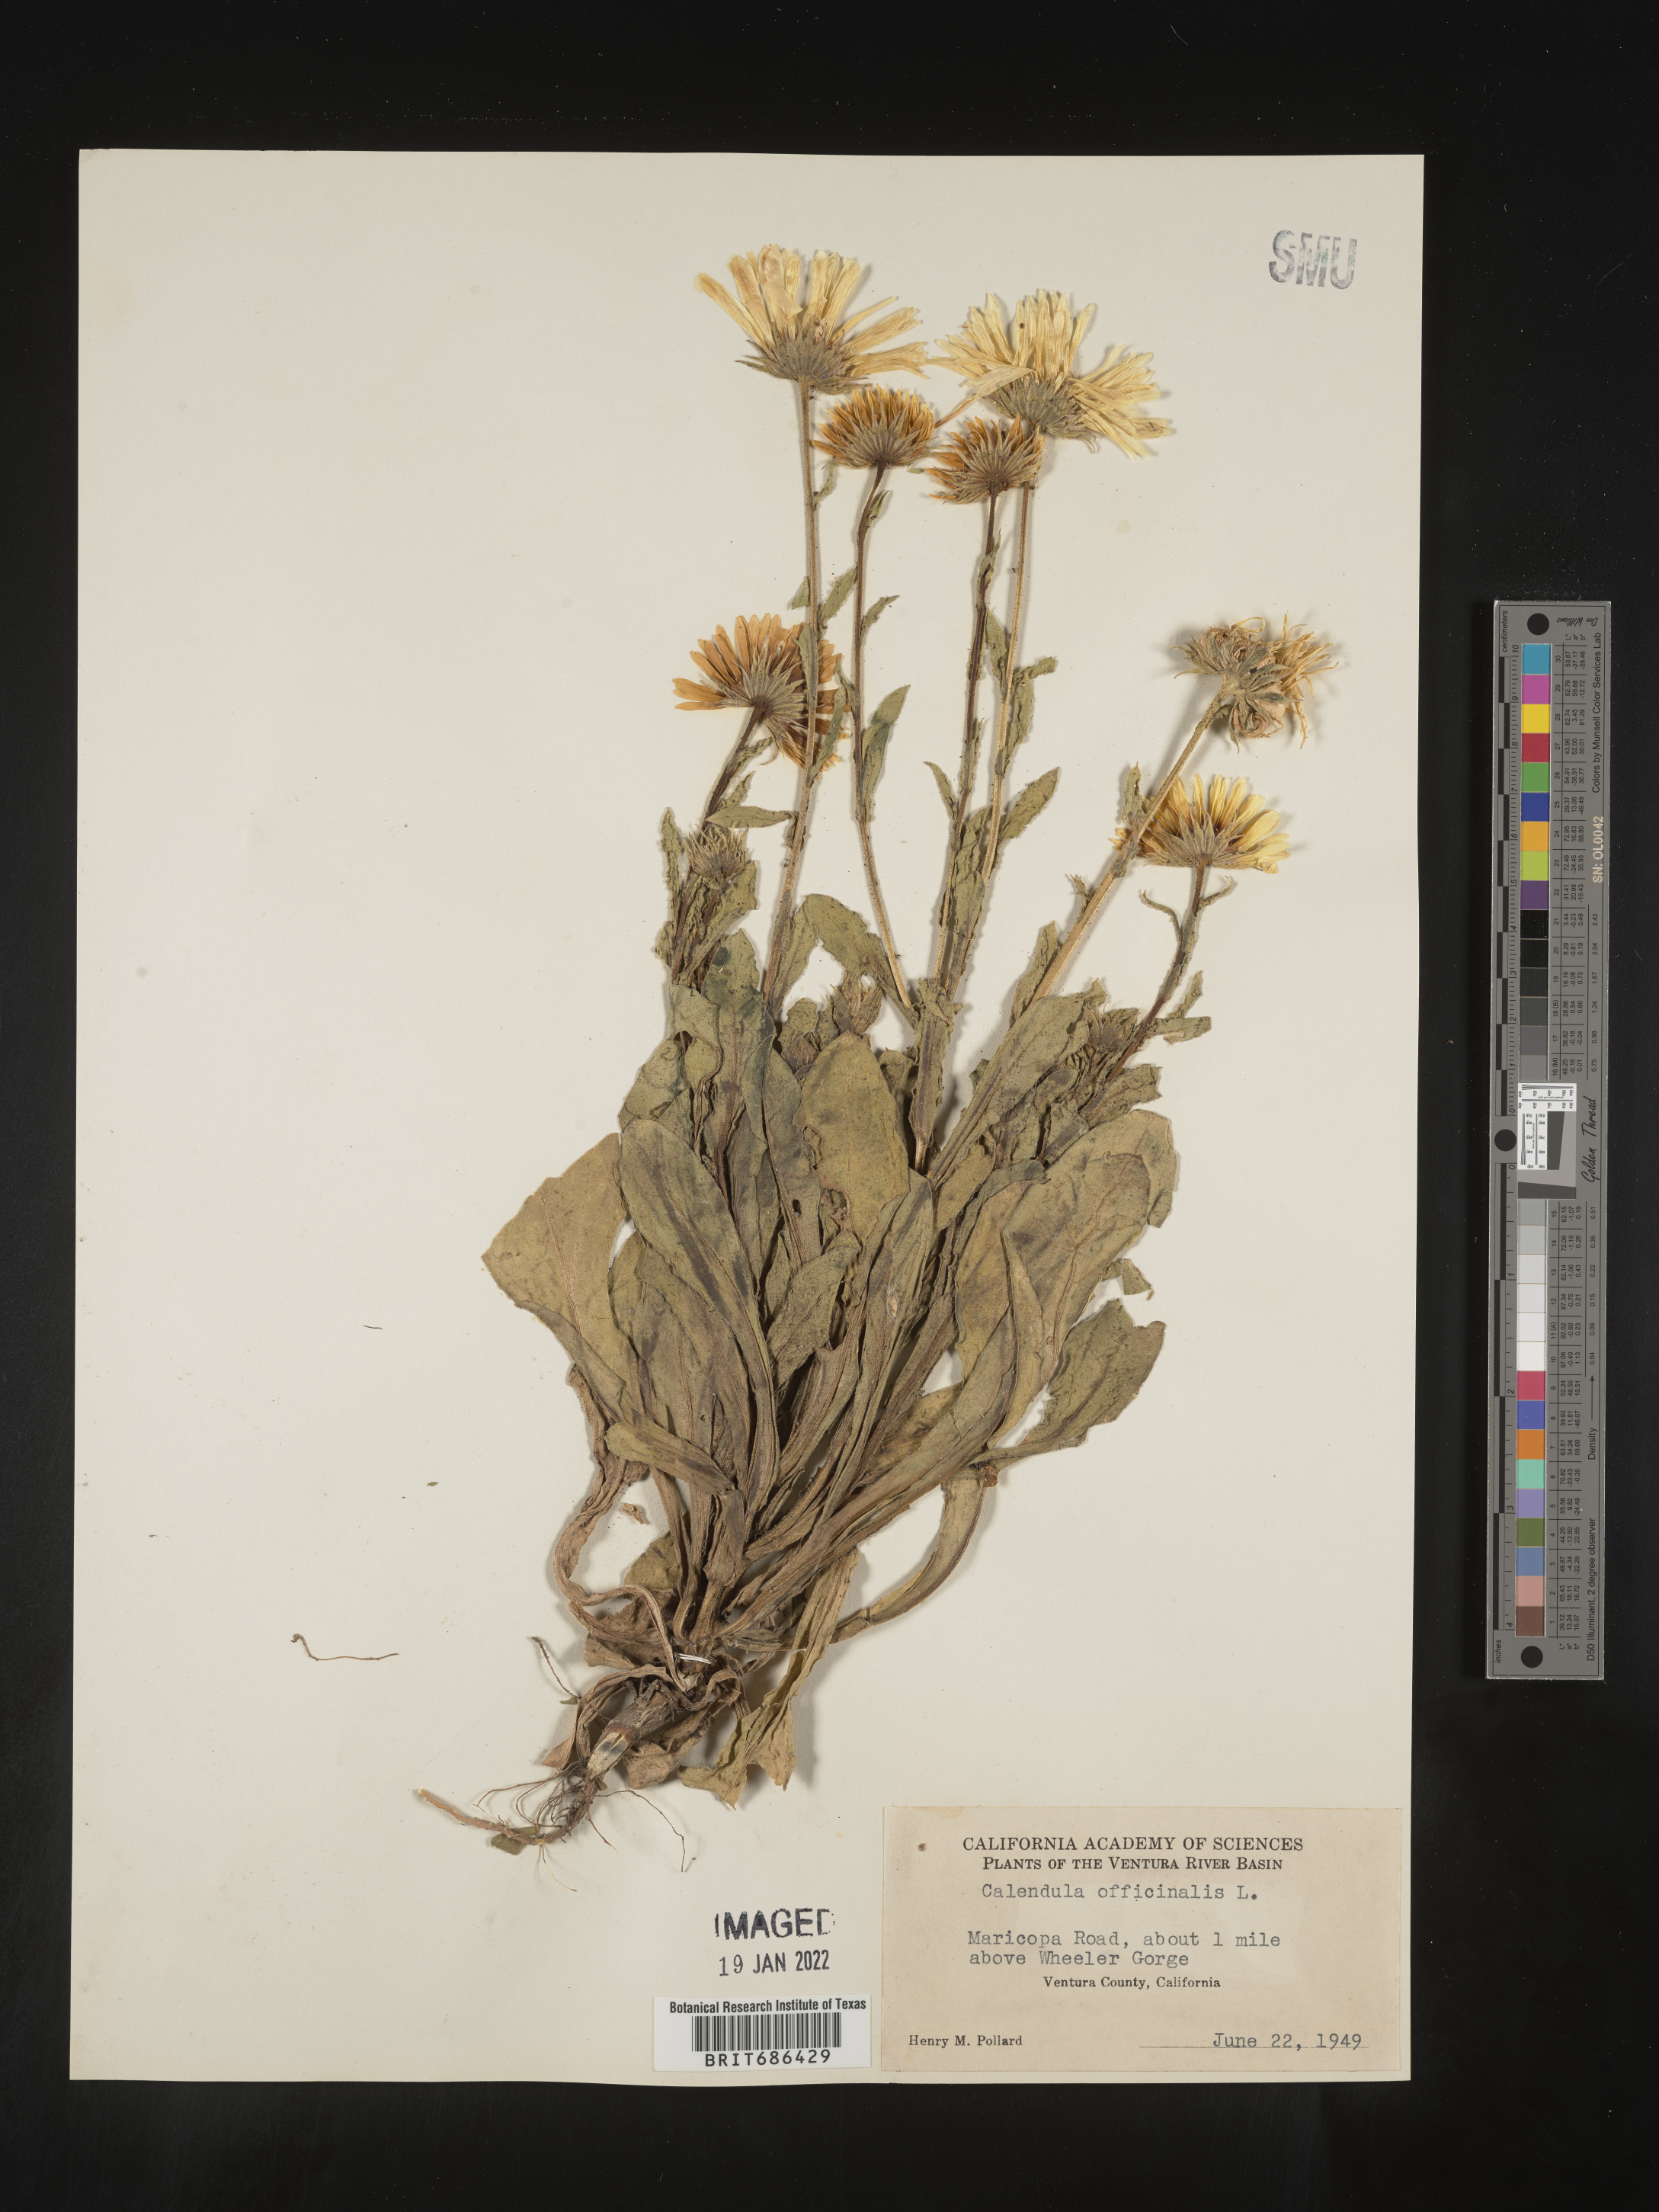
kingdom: Plantae
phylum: Tracheophyta
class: Magnoliopsida
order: Asterales
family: Asteraceae
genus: Calendula
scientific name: Calendula
